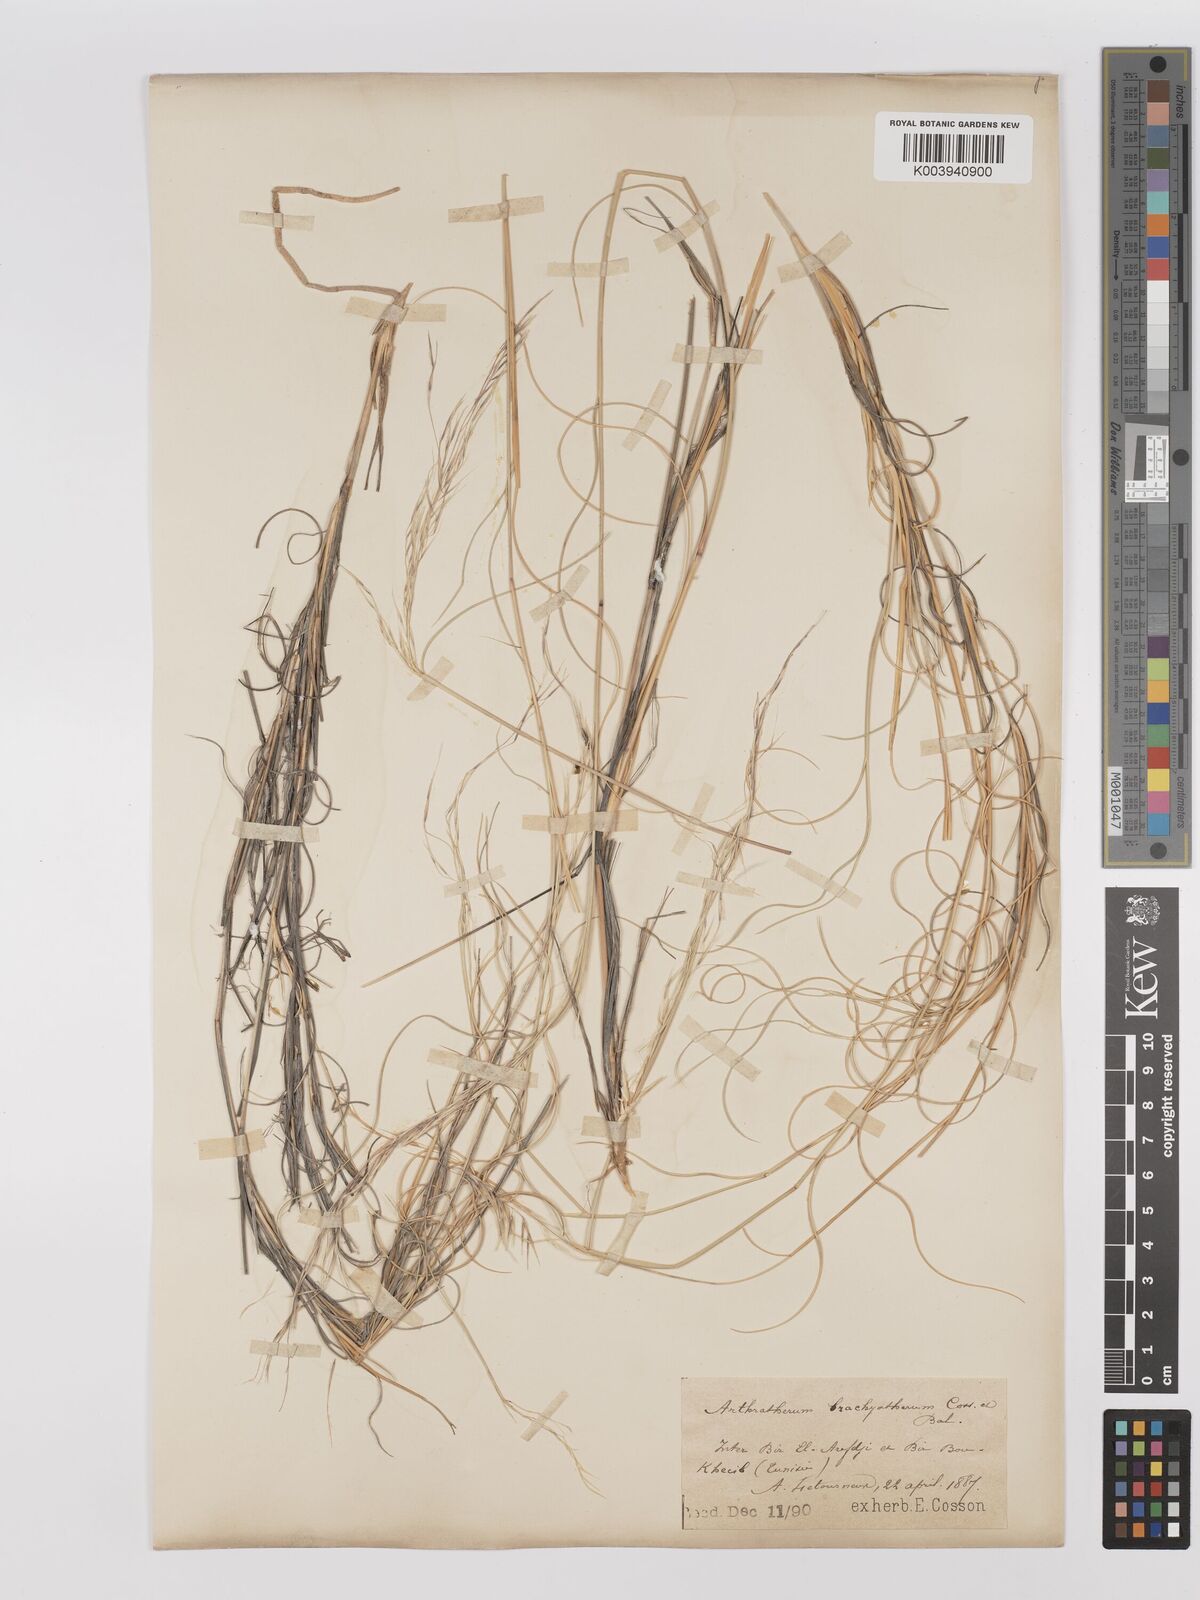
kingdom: Plantae
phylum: Tracheophyta
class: Liliopsida
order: Poales
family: Poaceae
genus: Stipagrostis
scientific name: Stipagrostis acutiflora
